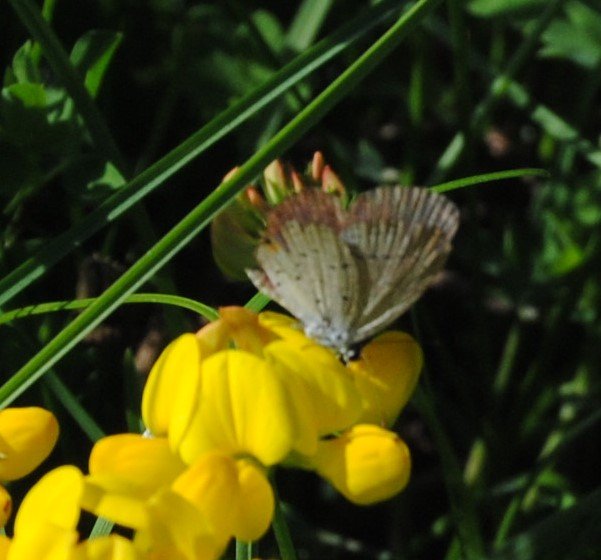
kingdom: Animalia
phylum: Arthropoda
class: Insecta
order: Lepidoptera
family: Lycaenidae
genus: Elkalyce
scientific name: Elkalyce comyntas
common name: Eastern Tailed-Blue
